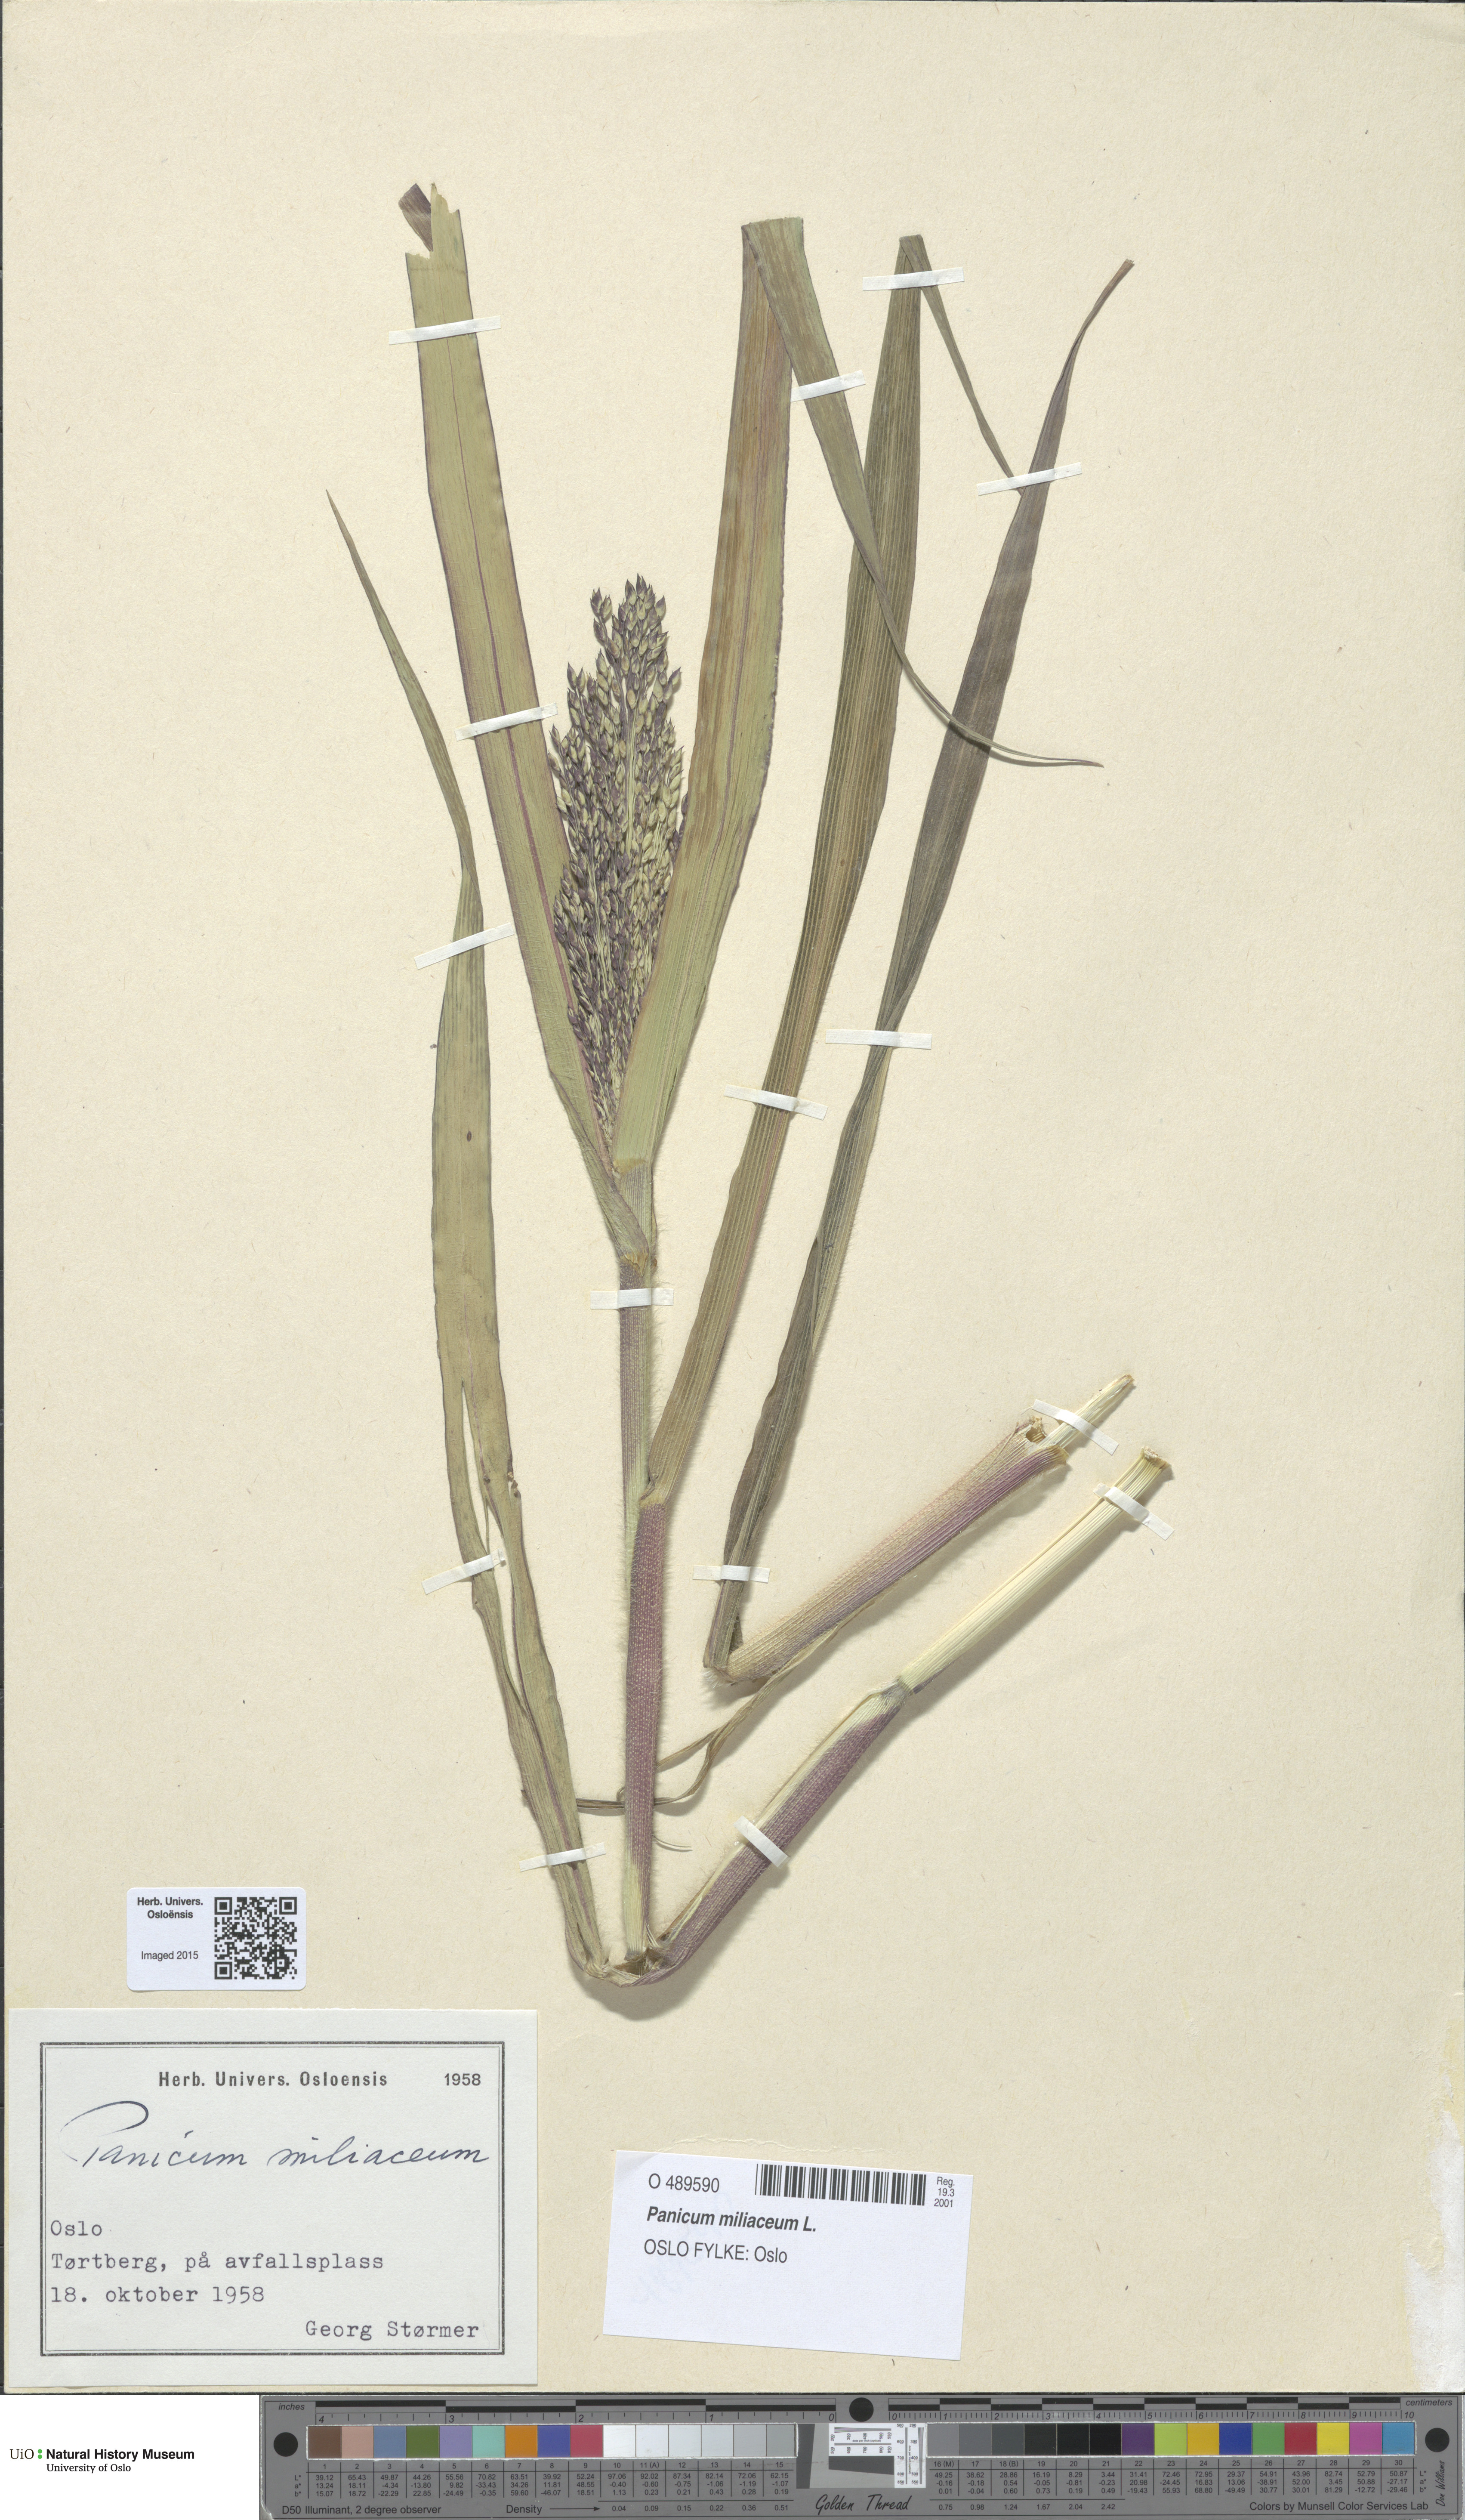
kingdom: Plantae
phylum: Tracheophyta
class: Liliopsida
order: Poales
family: Poaceae
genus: Panicum
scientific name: Panicum miliaceum
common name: Common millet
